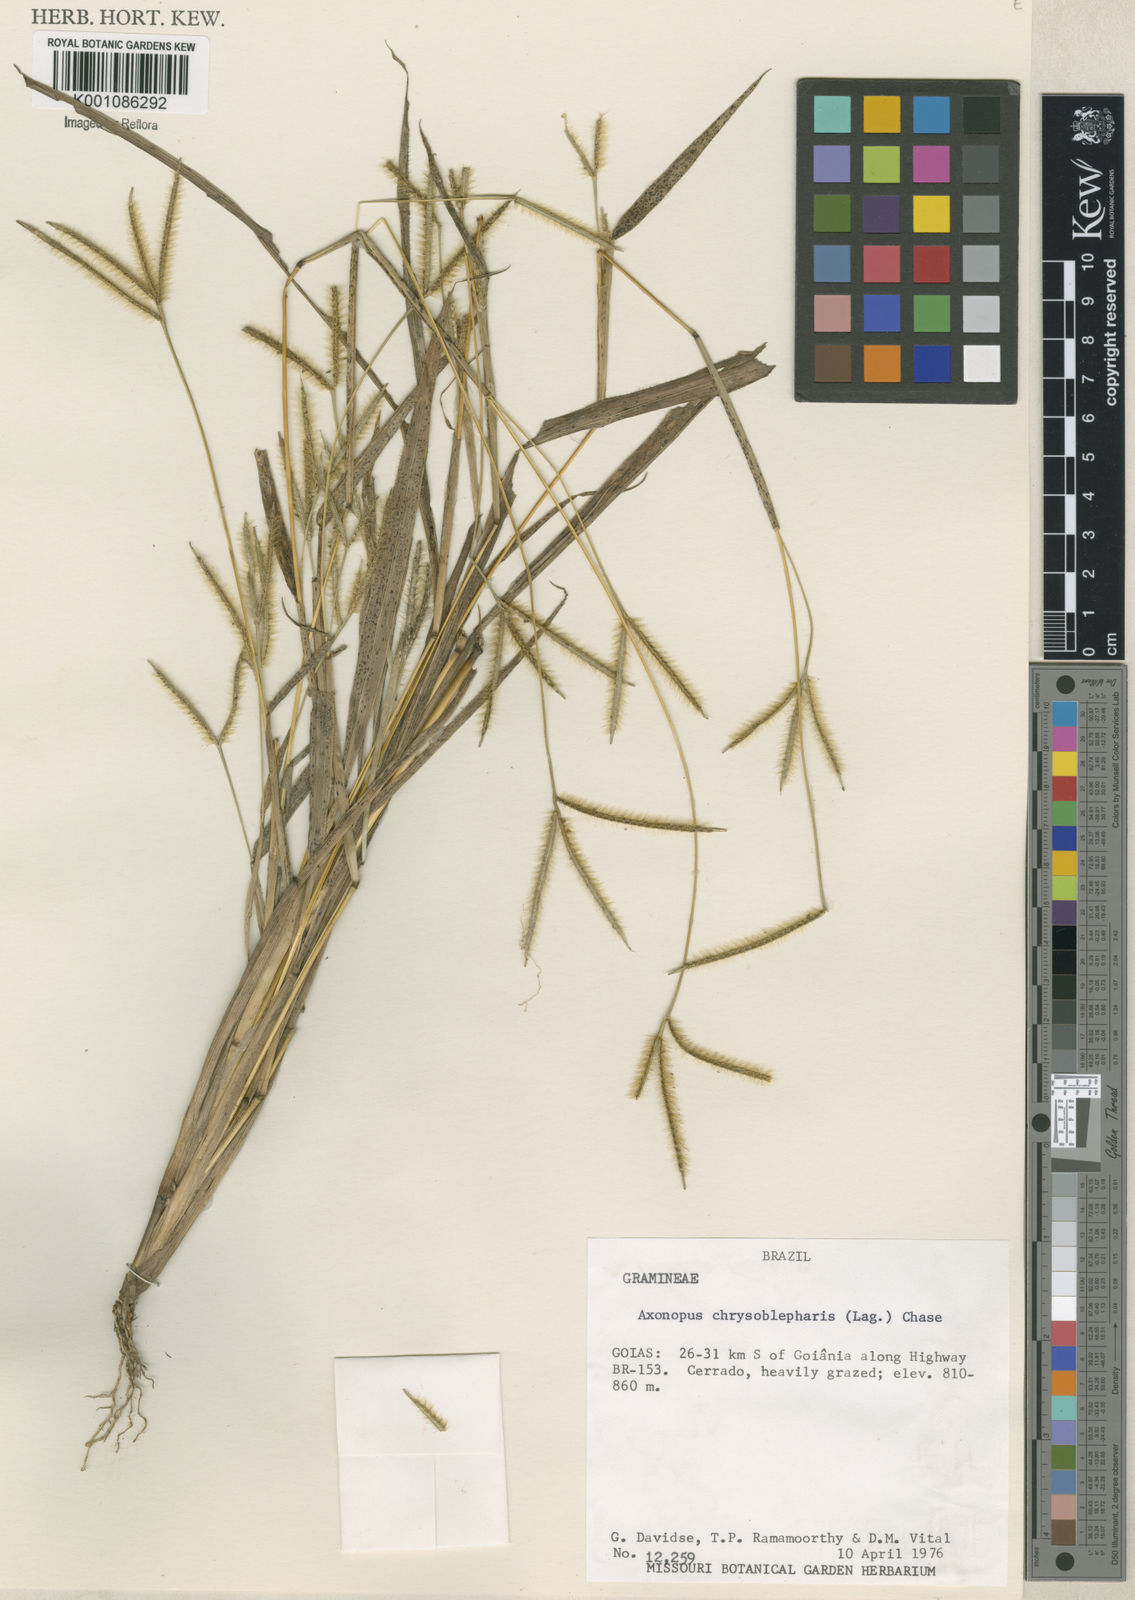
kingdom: Plantae
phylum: Tracheophyta
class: Liliopsida
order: Poales
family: Poaceae
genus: Axonopus
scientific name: Axonopus chrysoblepharis
